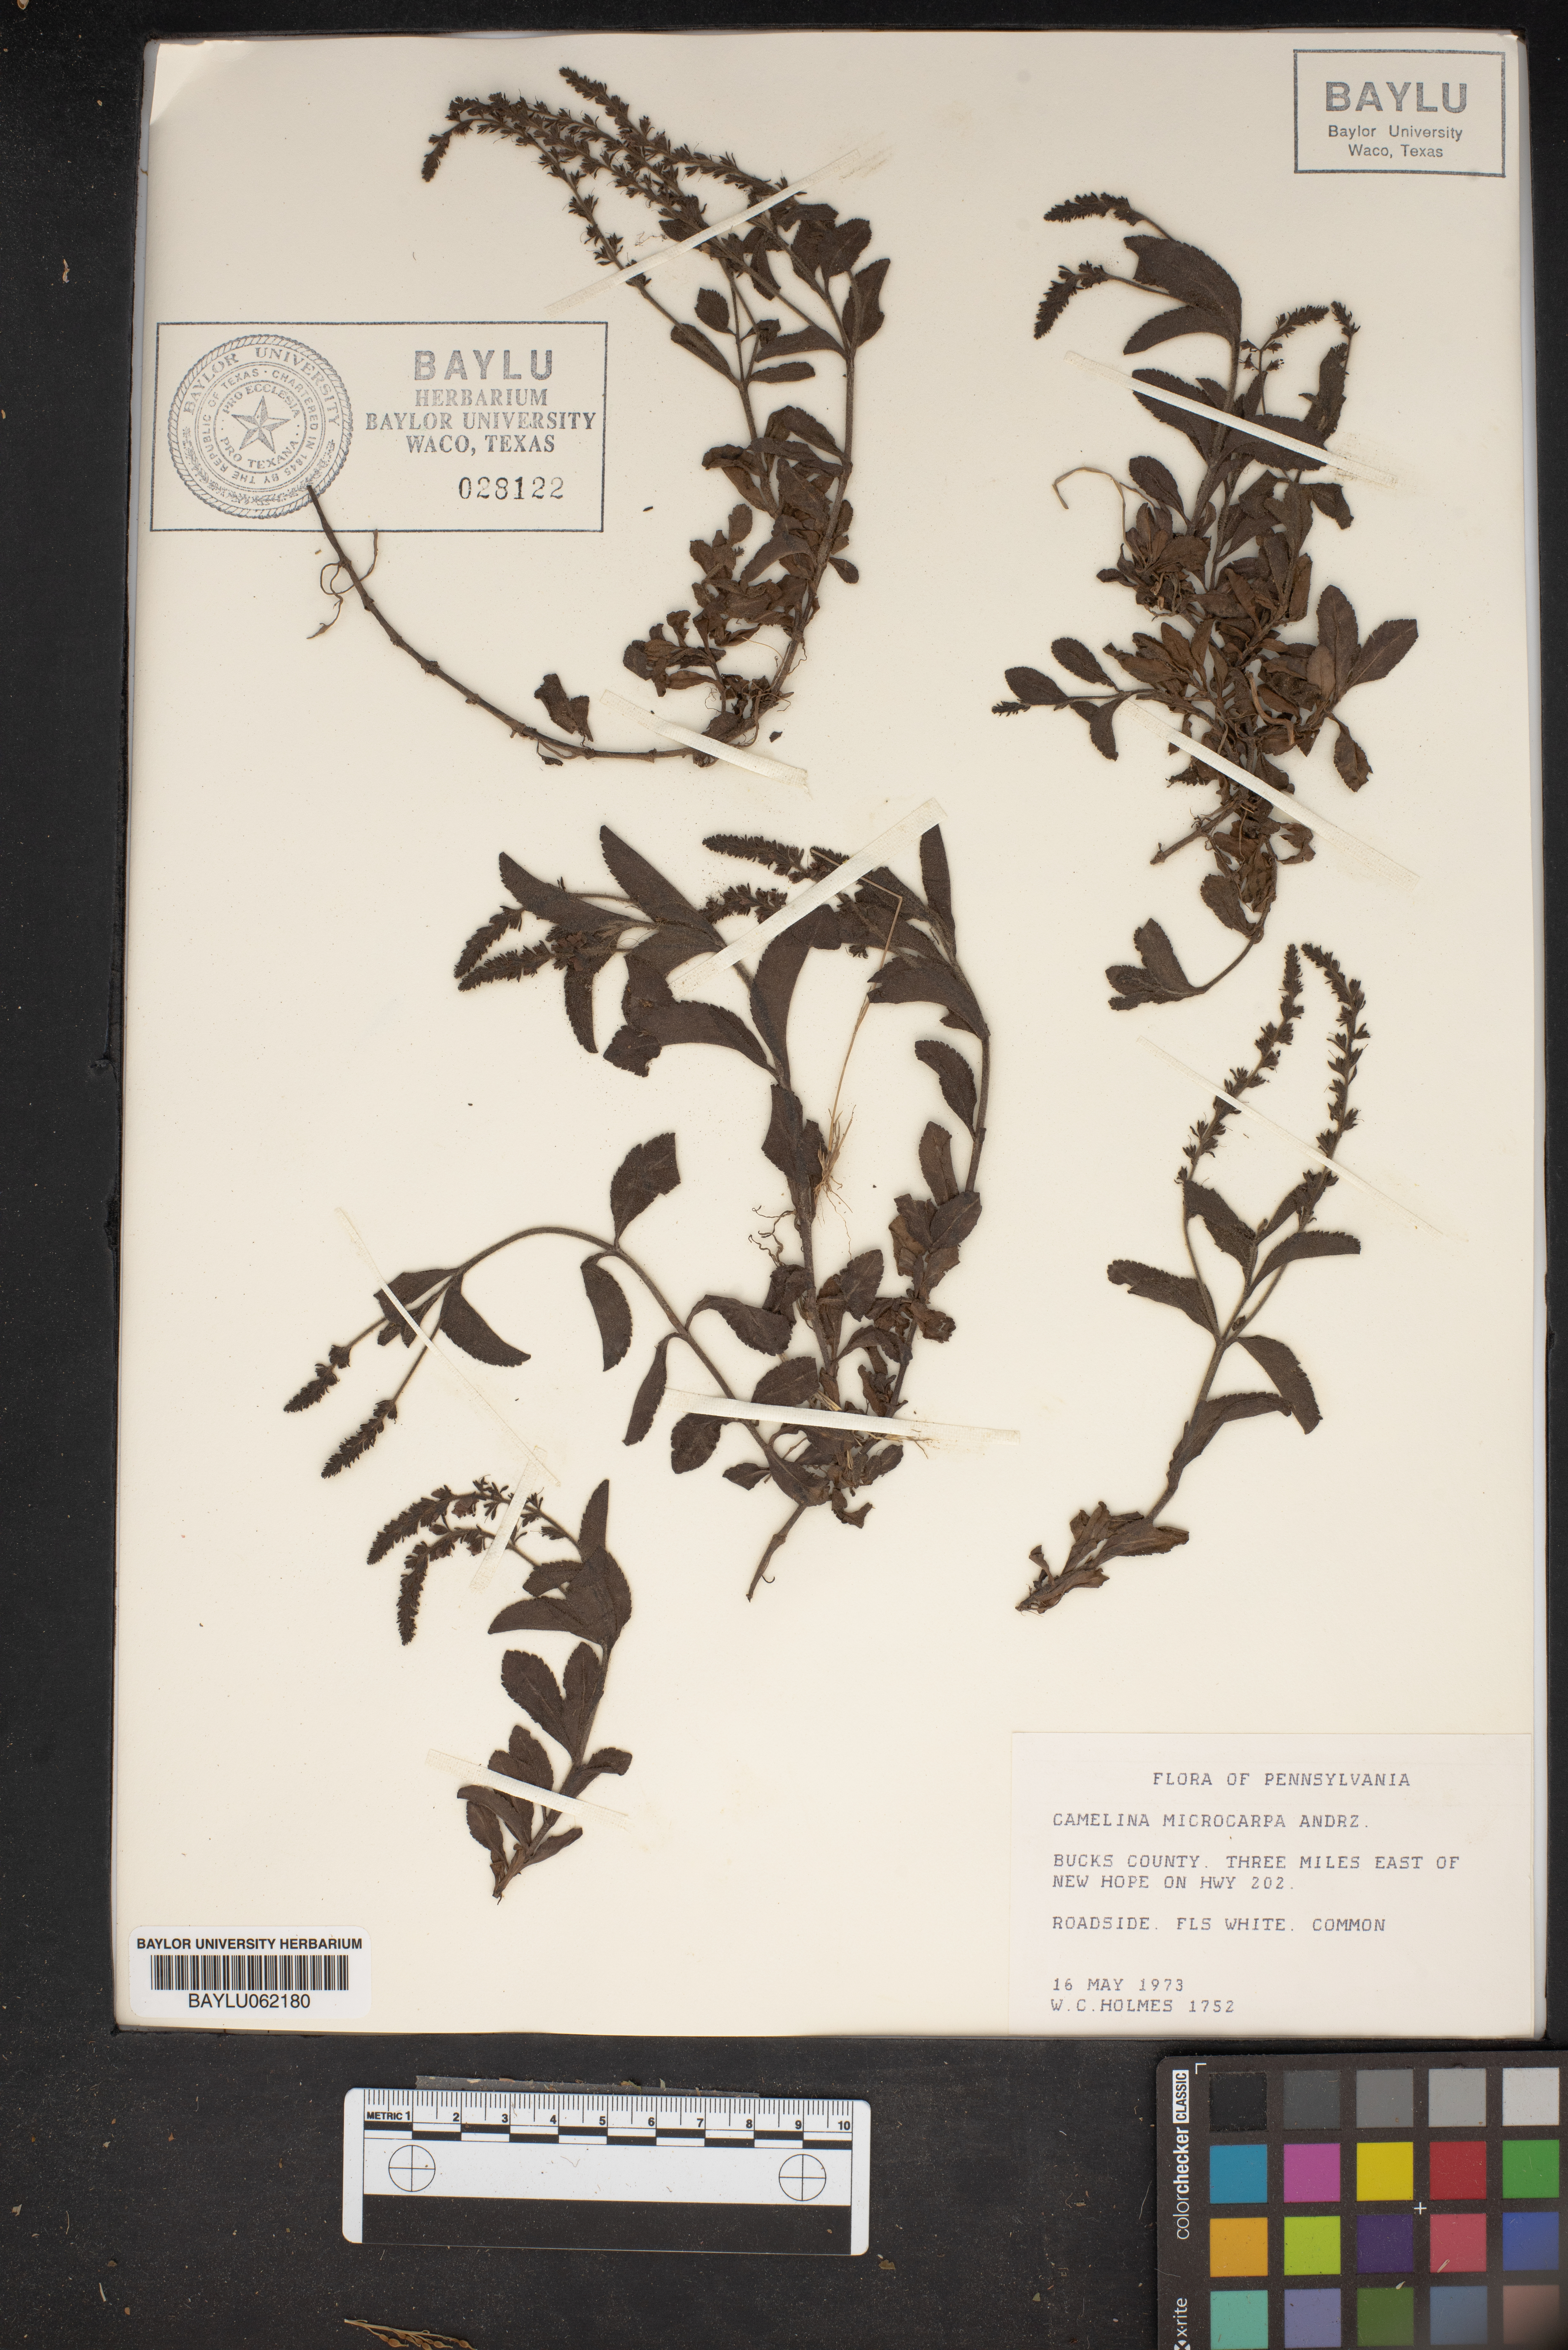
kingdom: Plantae
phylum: Tracheophyta
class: Magnoliopsida
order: Brassicales
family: Brassicaceae
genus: Camelina
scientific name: Camelina microcarpa
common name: Lesser gold-of-pleasure
